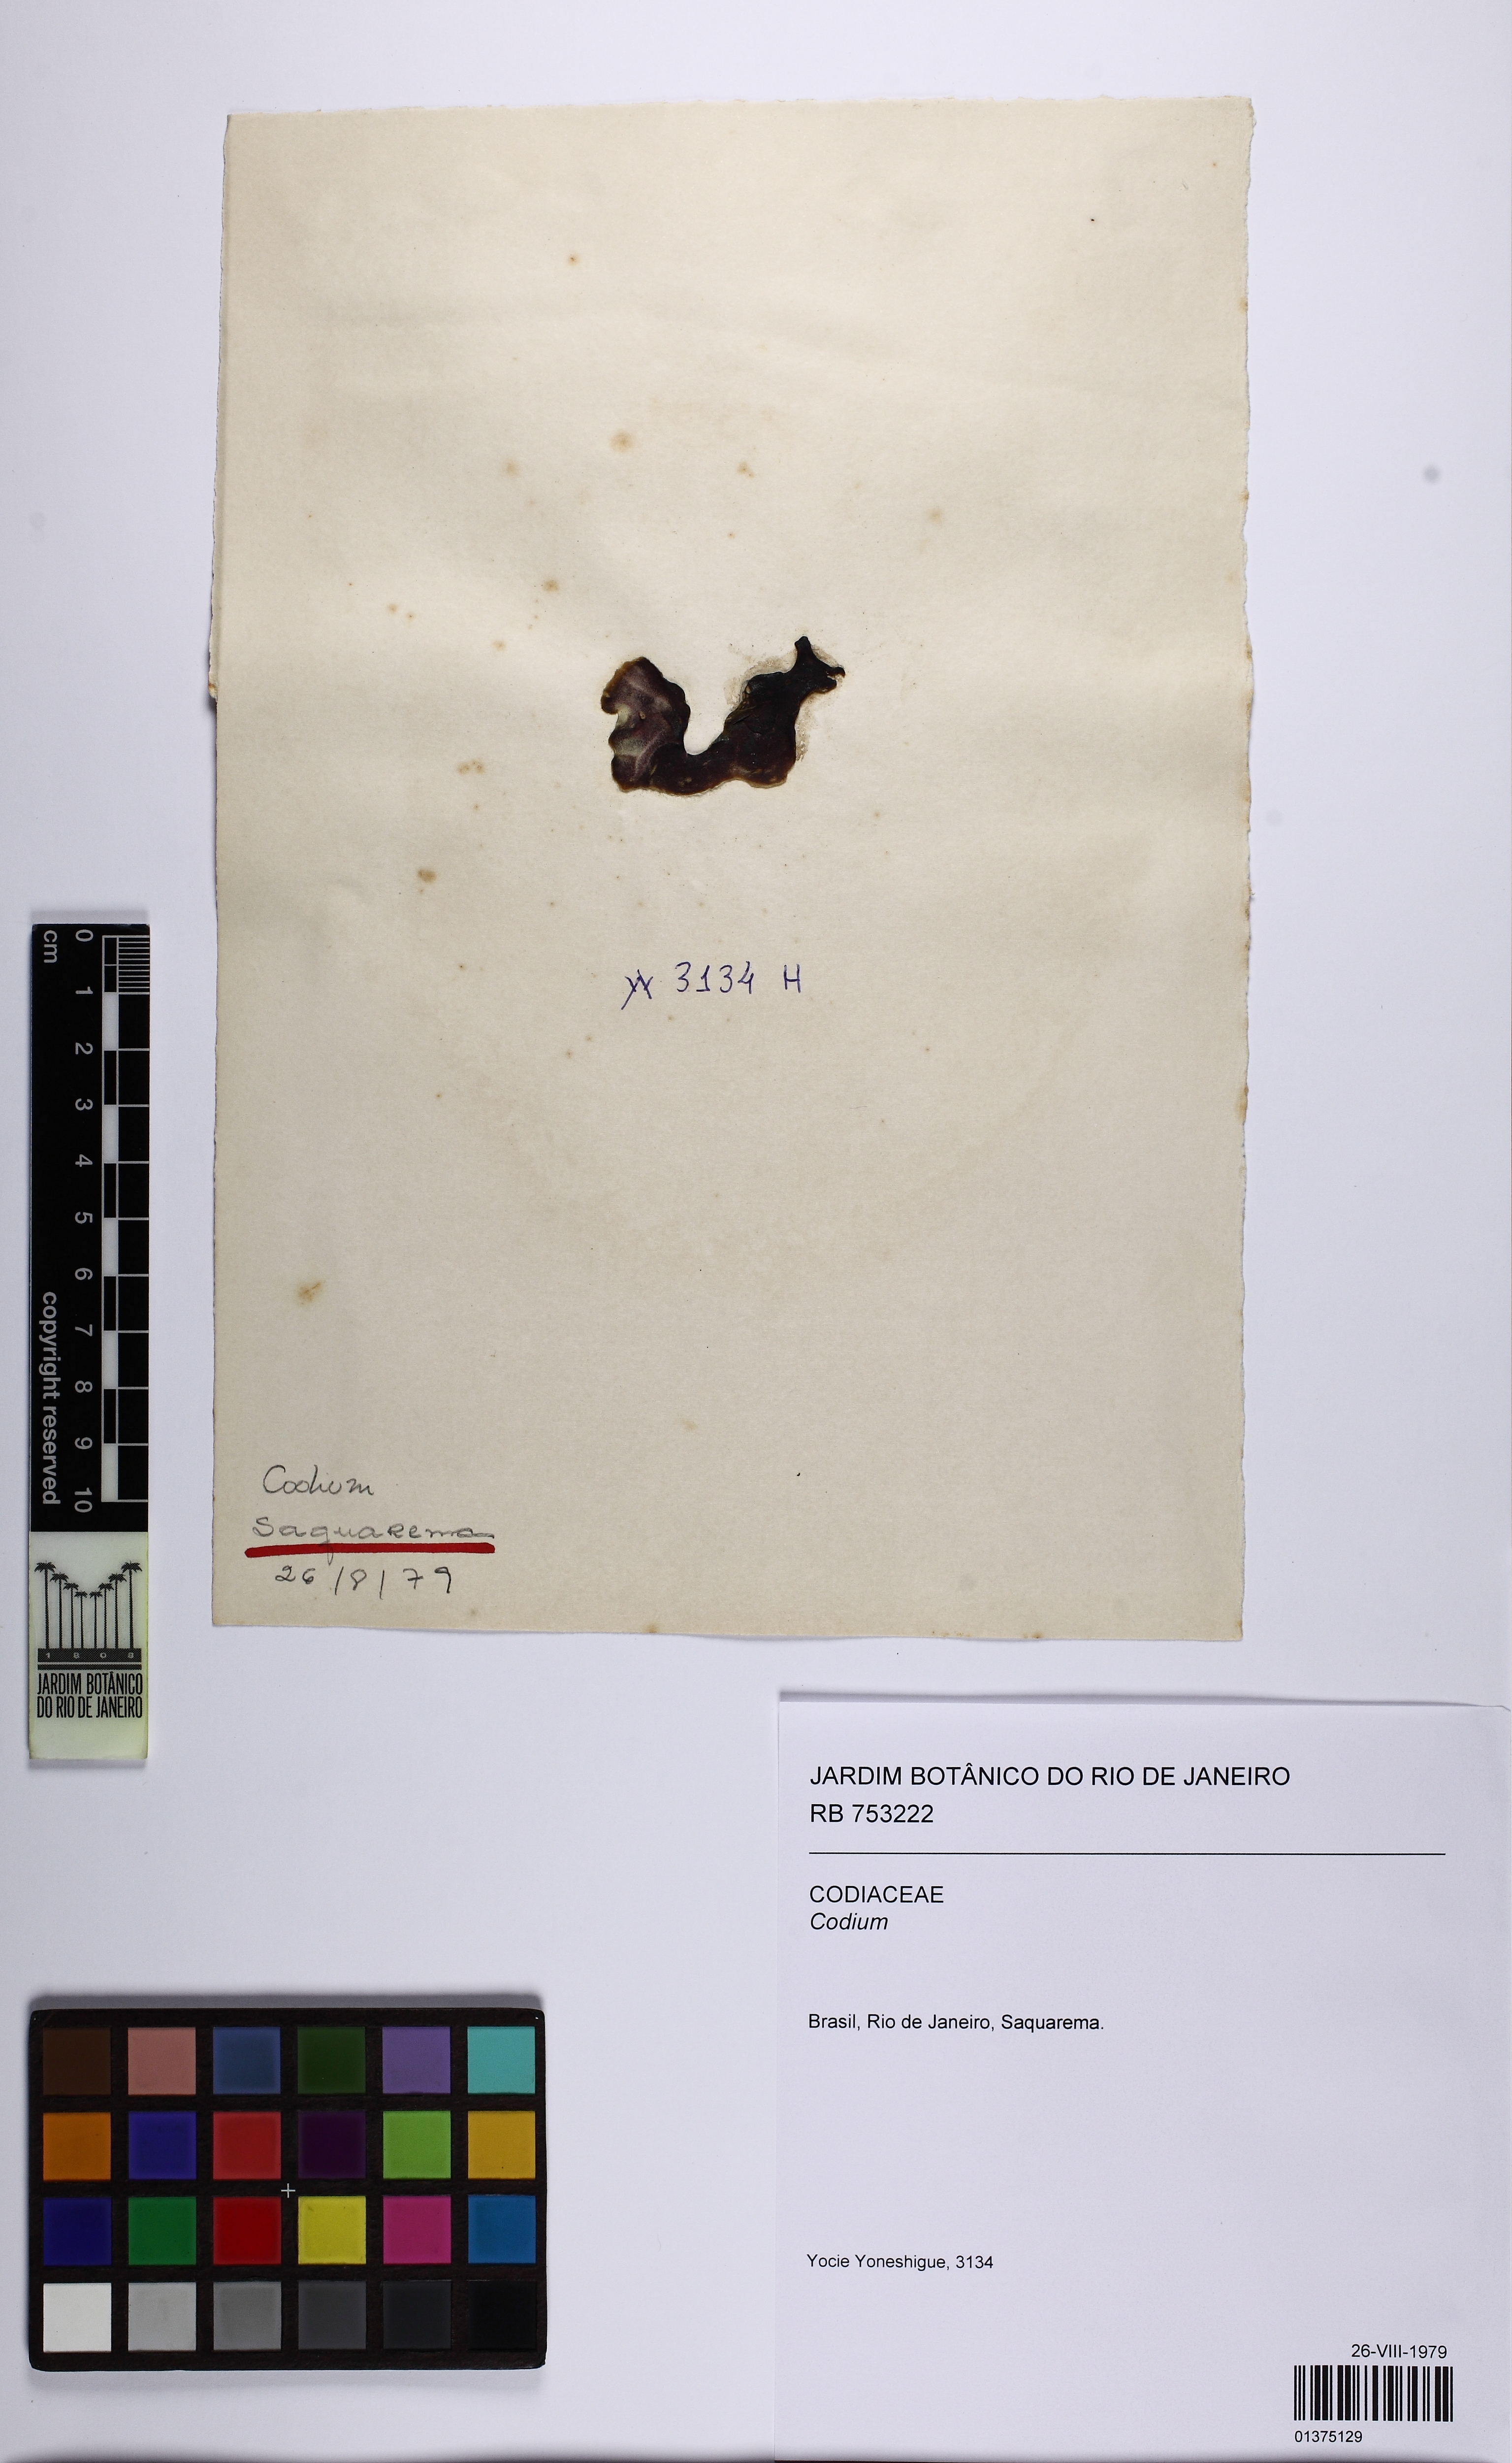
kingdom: Plantae
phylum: Chlorophyta
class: Ulvophyceae
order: Bryopsidales
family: Codiaceae
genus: Codium
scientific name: Codium
